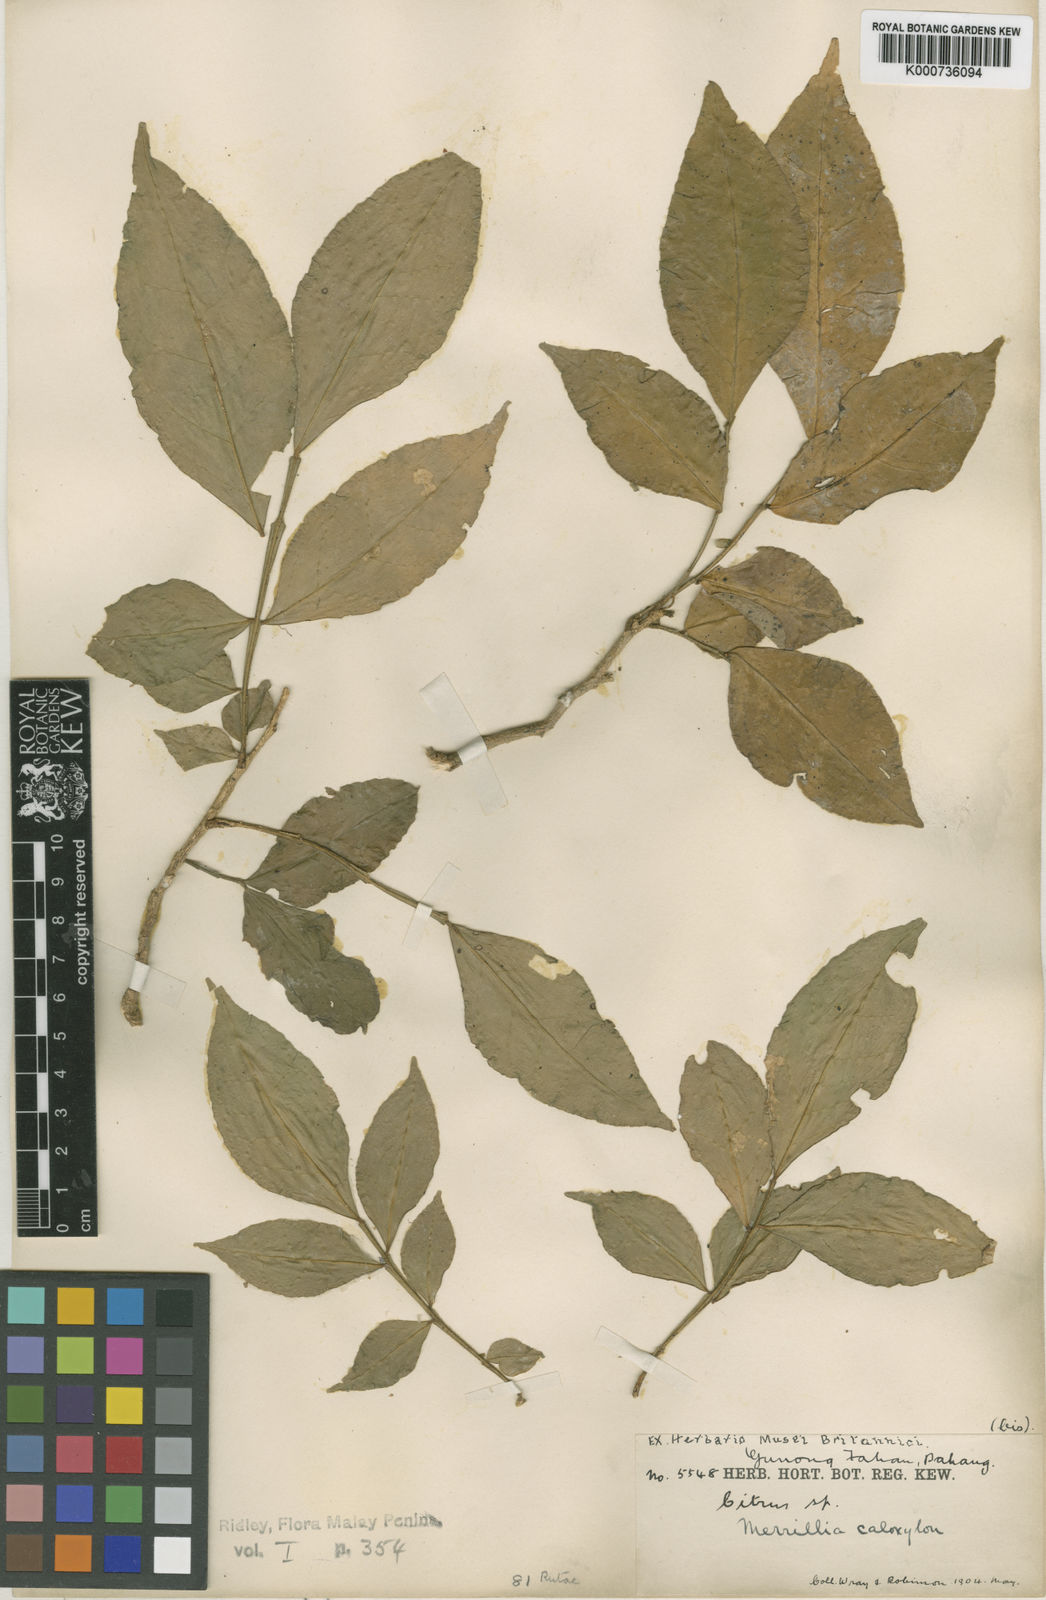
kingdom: Plantae
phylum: Tracheophyta
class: Magnoliopsida
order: Sapindales
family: Rutaceae
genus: Merrillia
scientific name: Merrillia caloxylon
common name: Katinga
